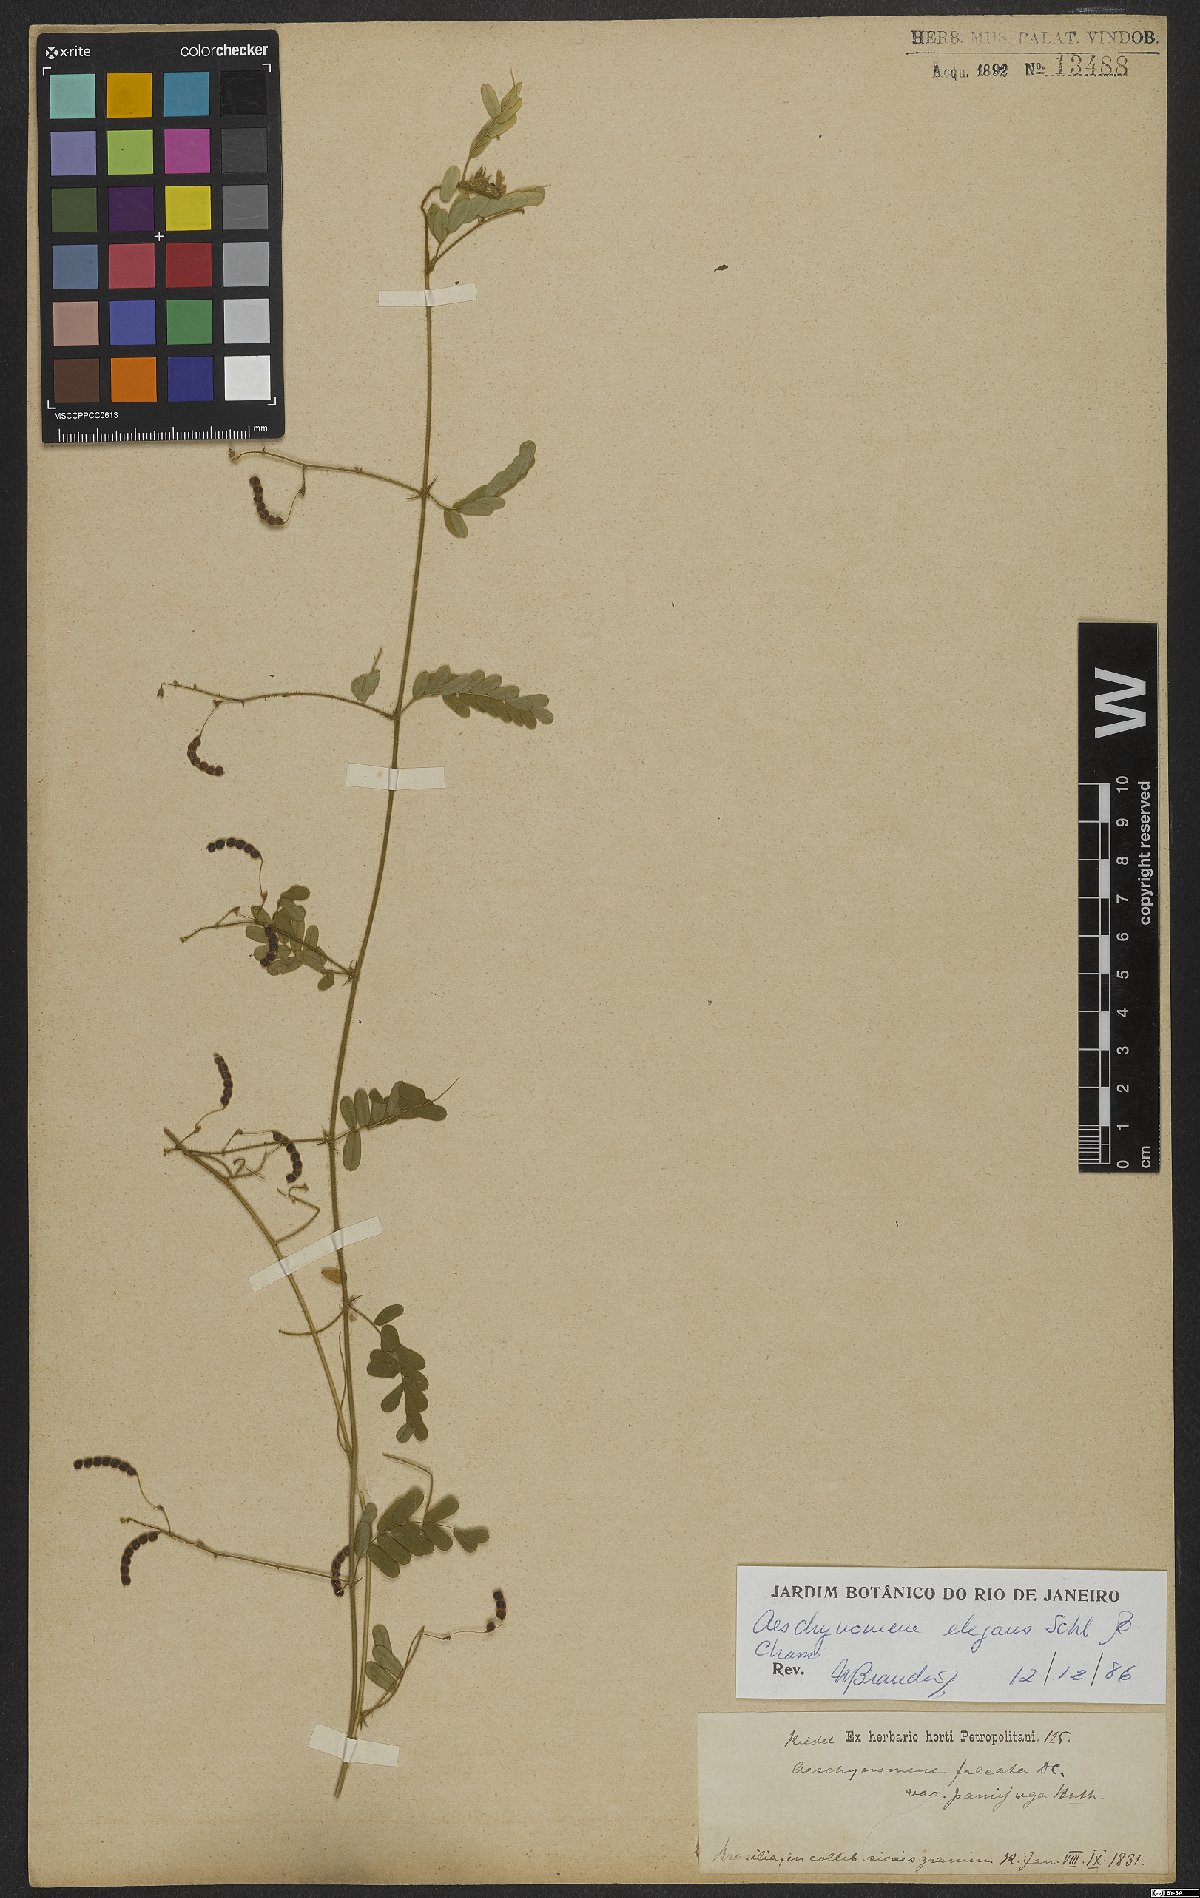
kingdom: Plantae
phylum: Tracheophyta
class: Magnoliopsida
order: Fabales
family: Fabaceae
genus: Ctenodon
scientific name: Ctenodon elegans
